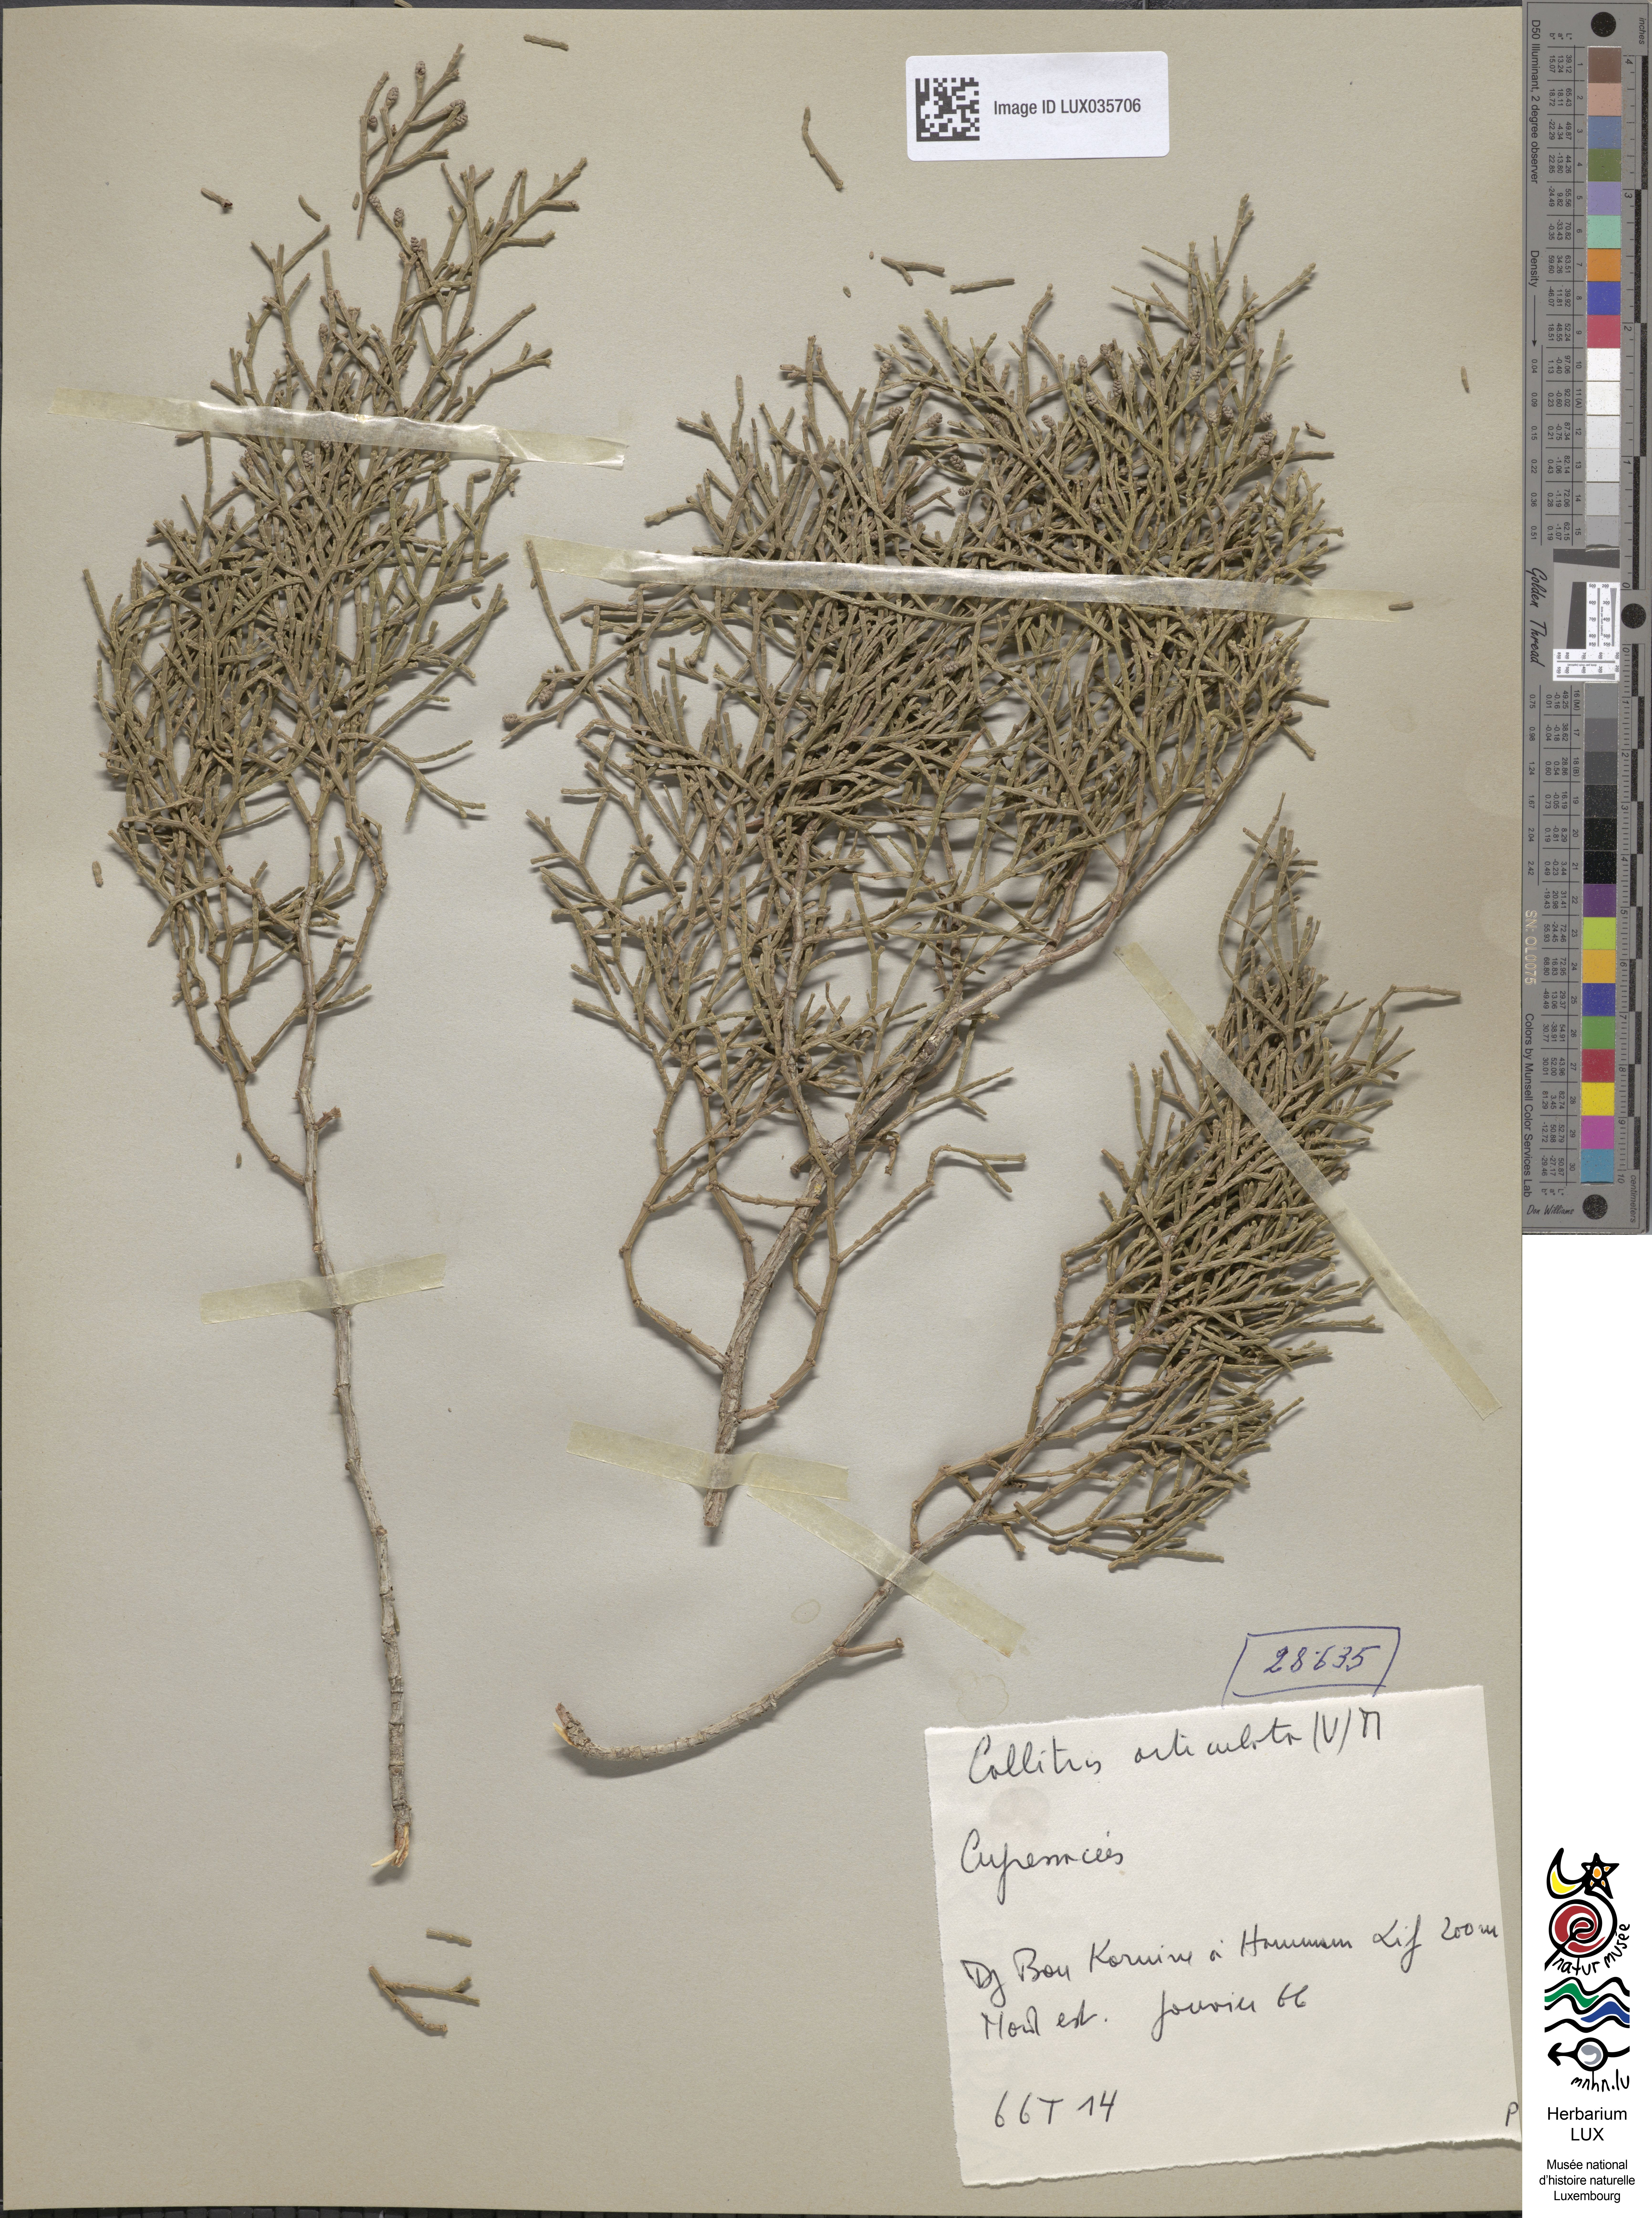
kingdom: Plantae
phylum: Tracheophyta
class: Pinopsida
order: Pinales
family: Cupressaceae
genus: Tetraclinis
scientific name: Tetraclinis articulata
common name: Sandarac
